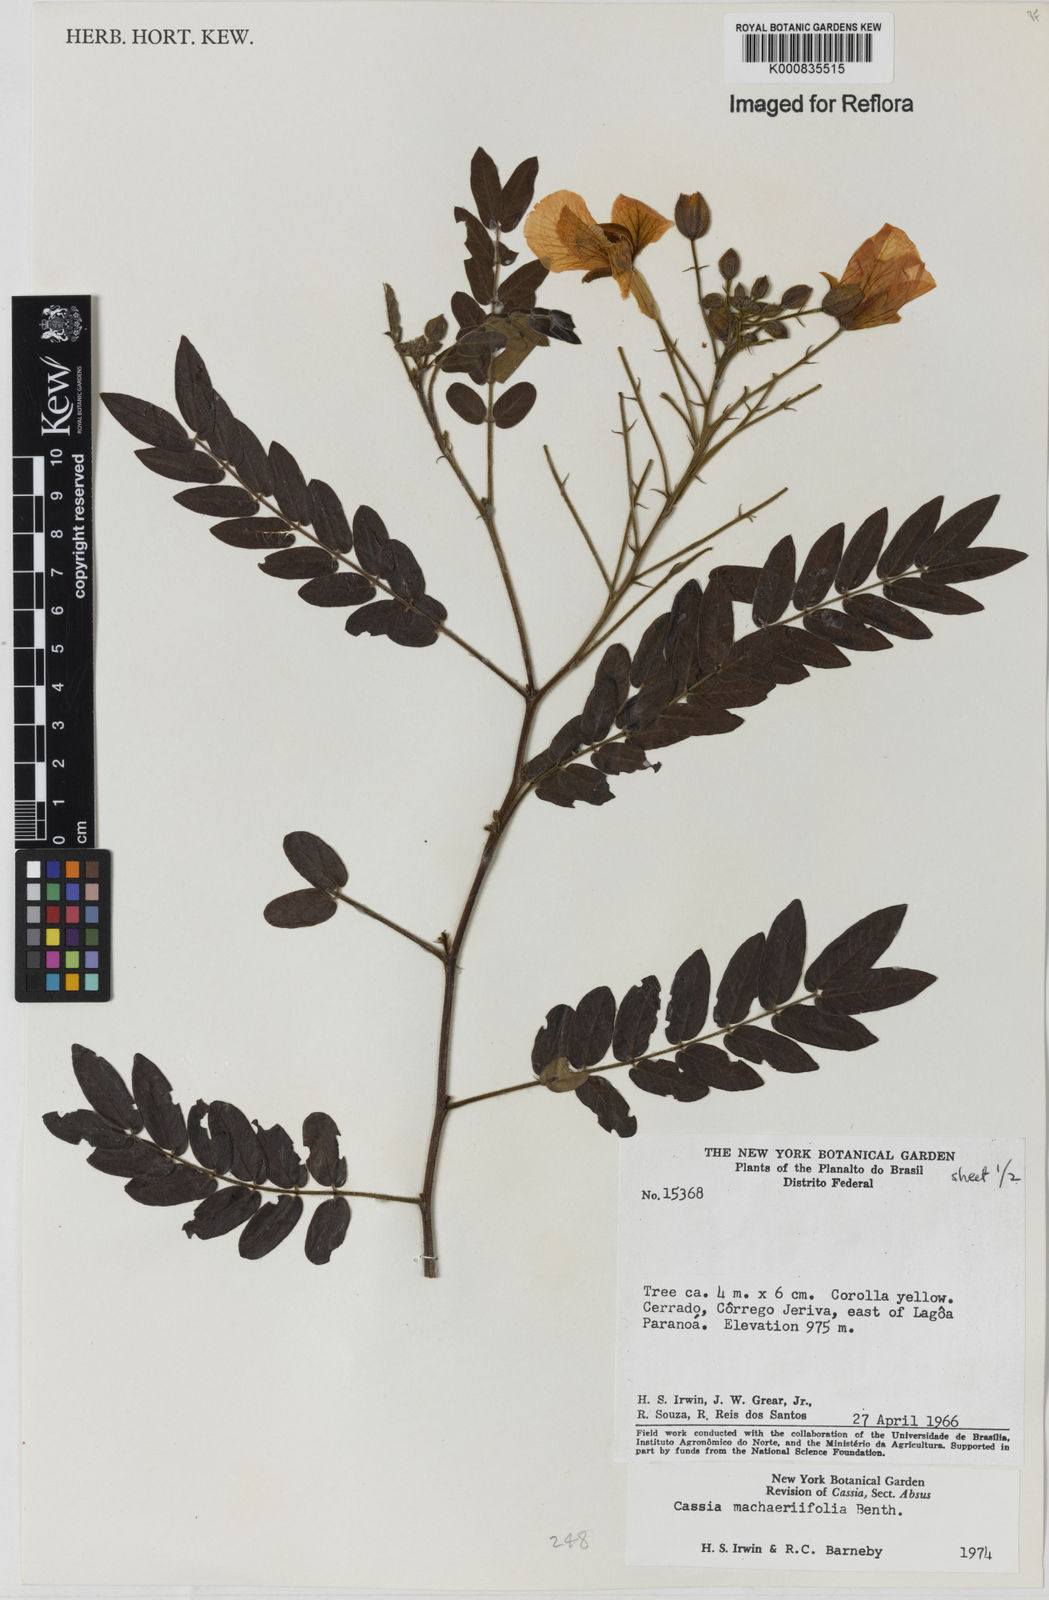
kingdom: Plantae
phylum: Tracheophyta
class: Magnoliopsida
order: Fabales
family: Fabaceae
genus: Chamaecrista
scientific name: Chamaecrista machaeriifolia
